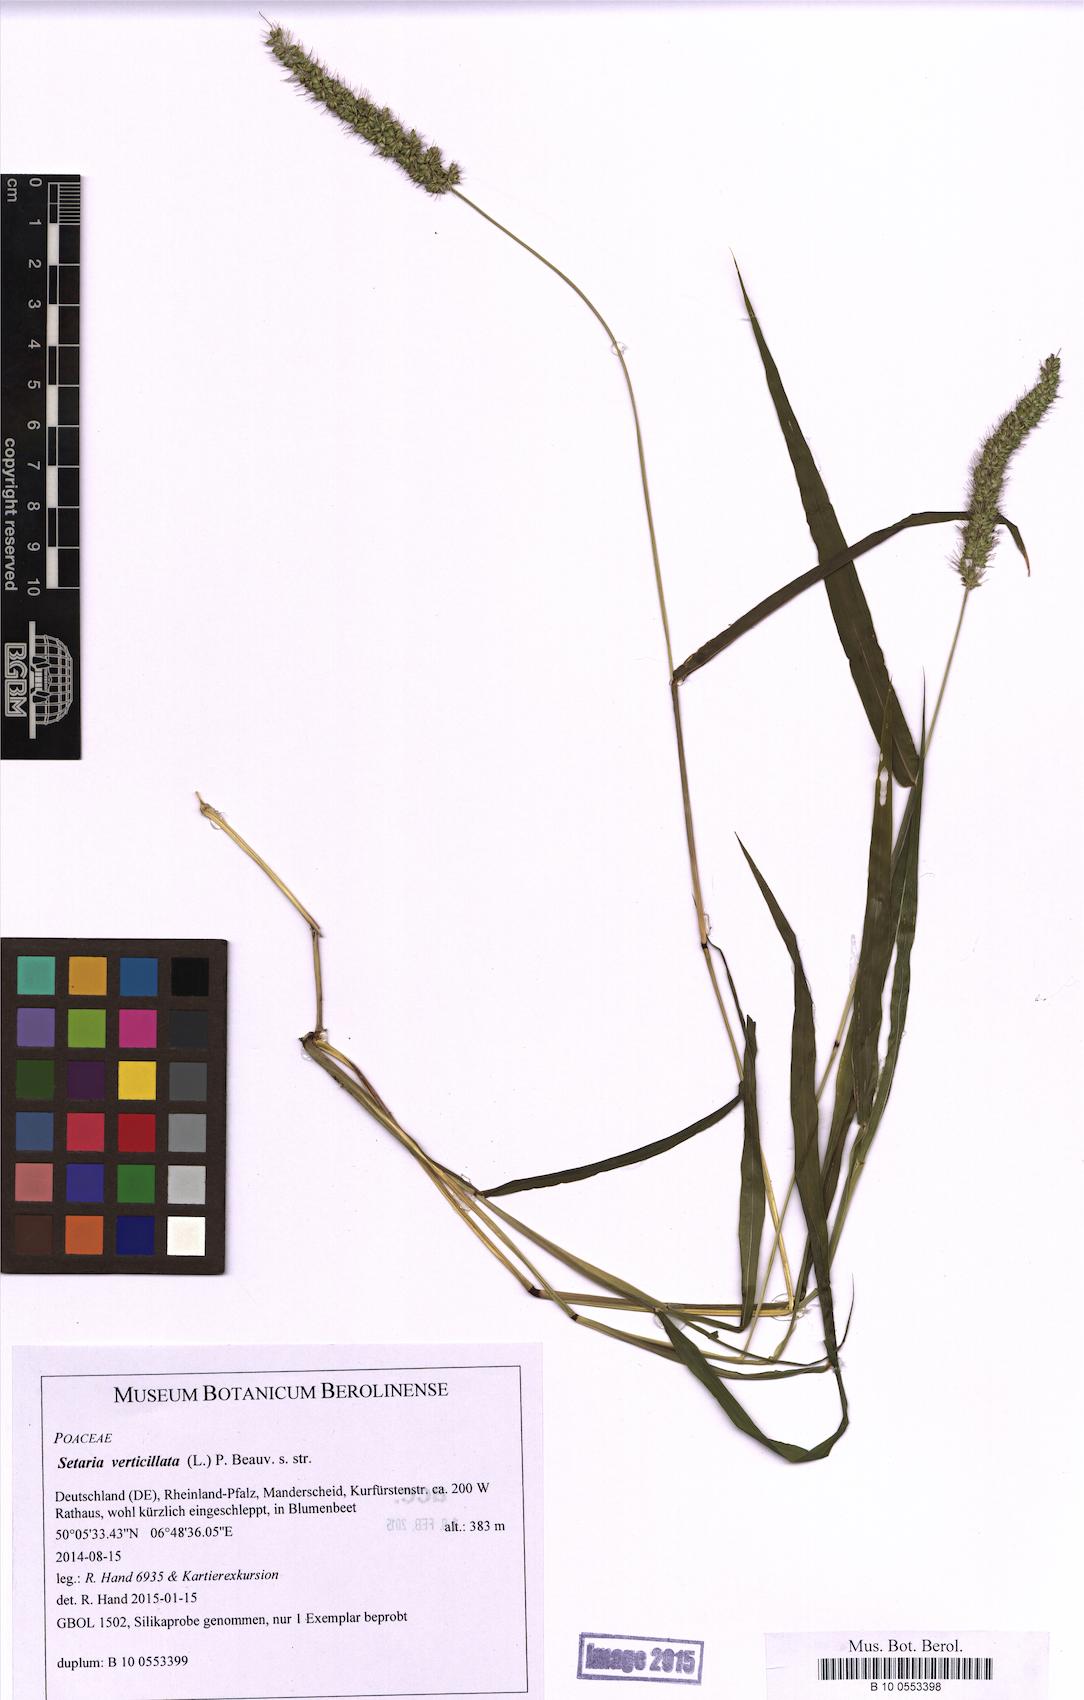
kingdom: Plantae
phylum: Tracheophyta
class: Liliopsida
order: Poales
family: Poaceae
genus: Setaria
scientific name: Setaria verticillata
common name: Hooked bristlegrass
